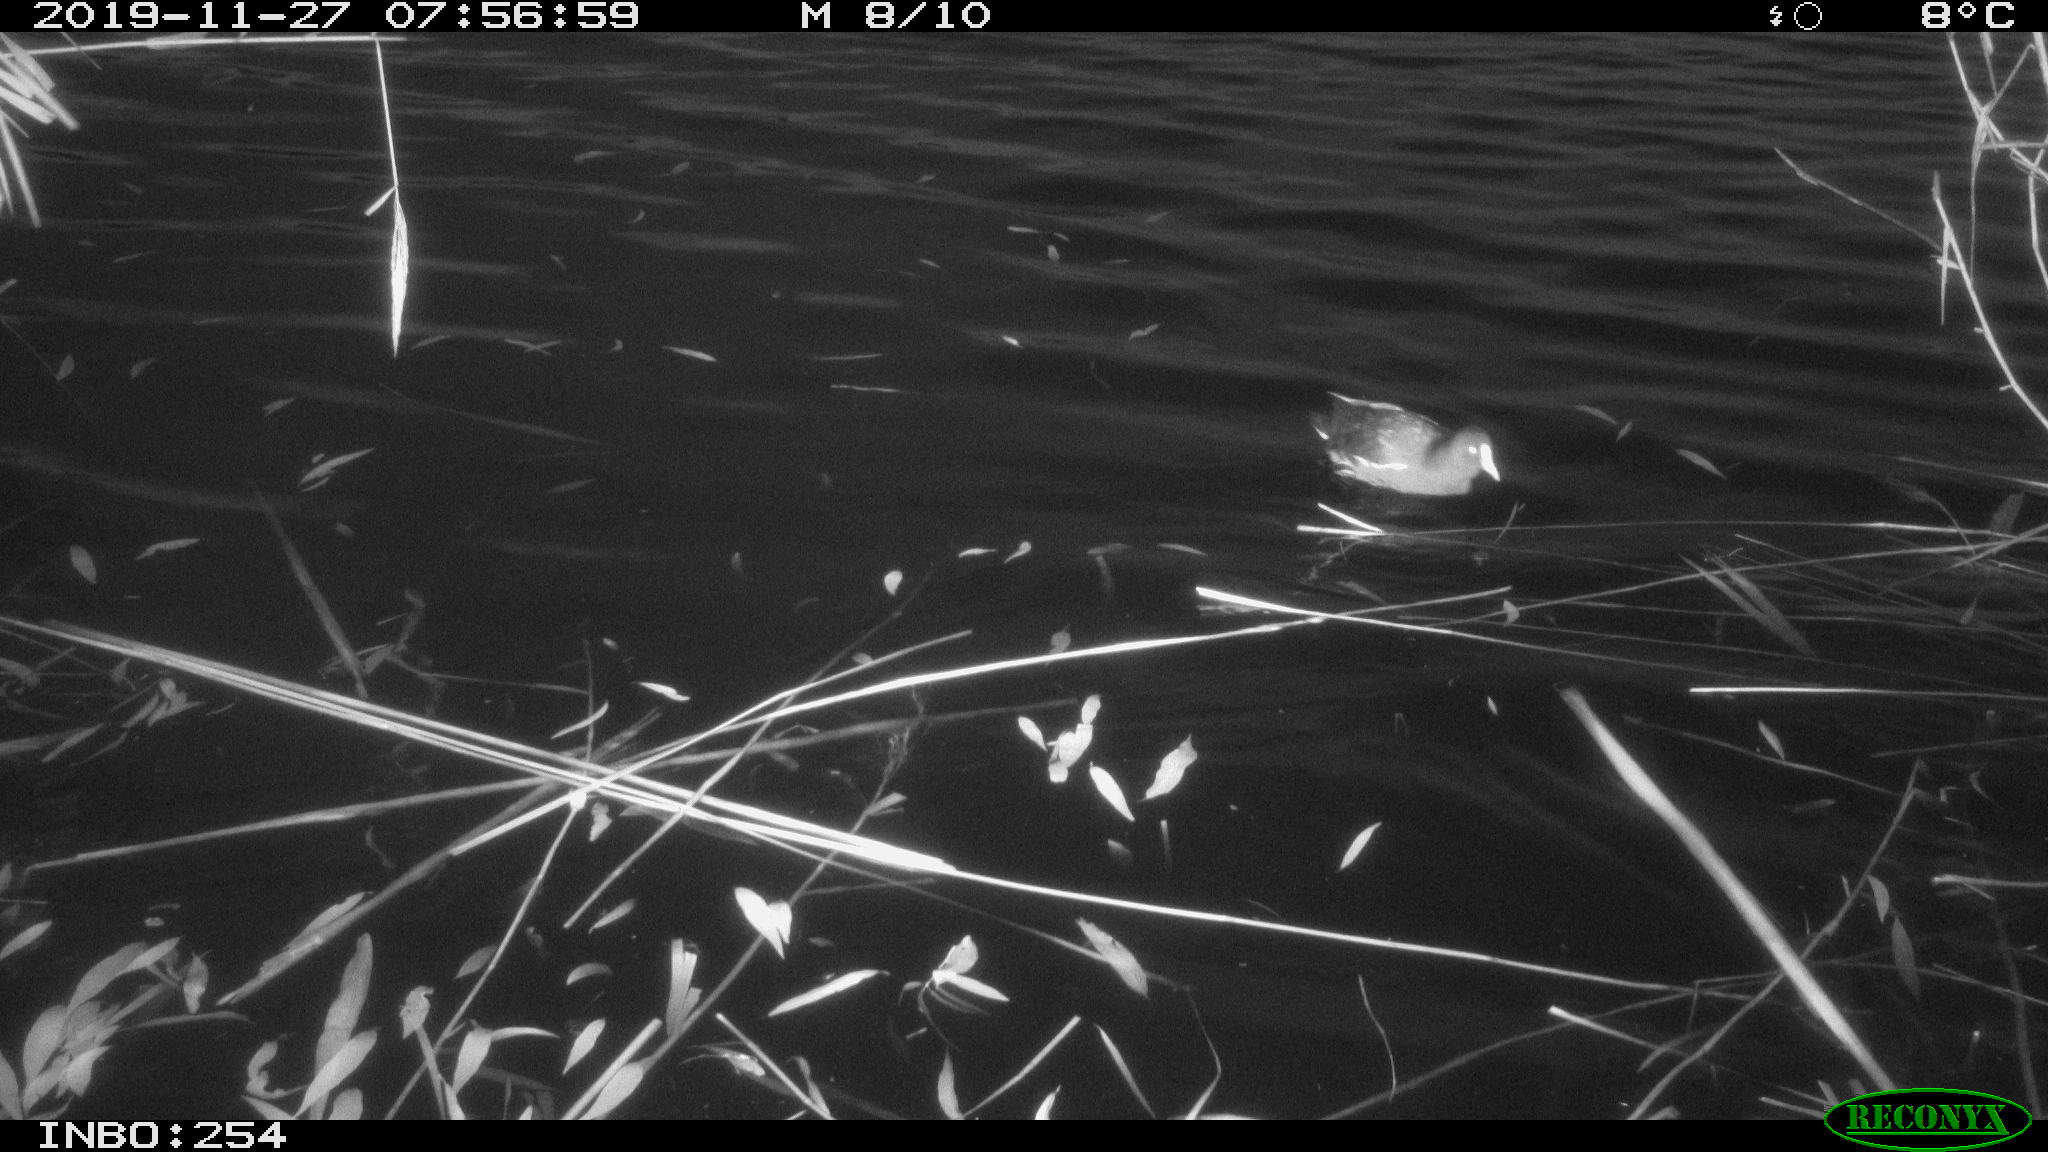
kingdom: Animalia
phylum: Chordata
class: Aves
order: Gruiformes
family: Rallidae
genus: Gallinula
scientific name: Gallinula chloropus
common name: Common moorhen
